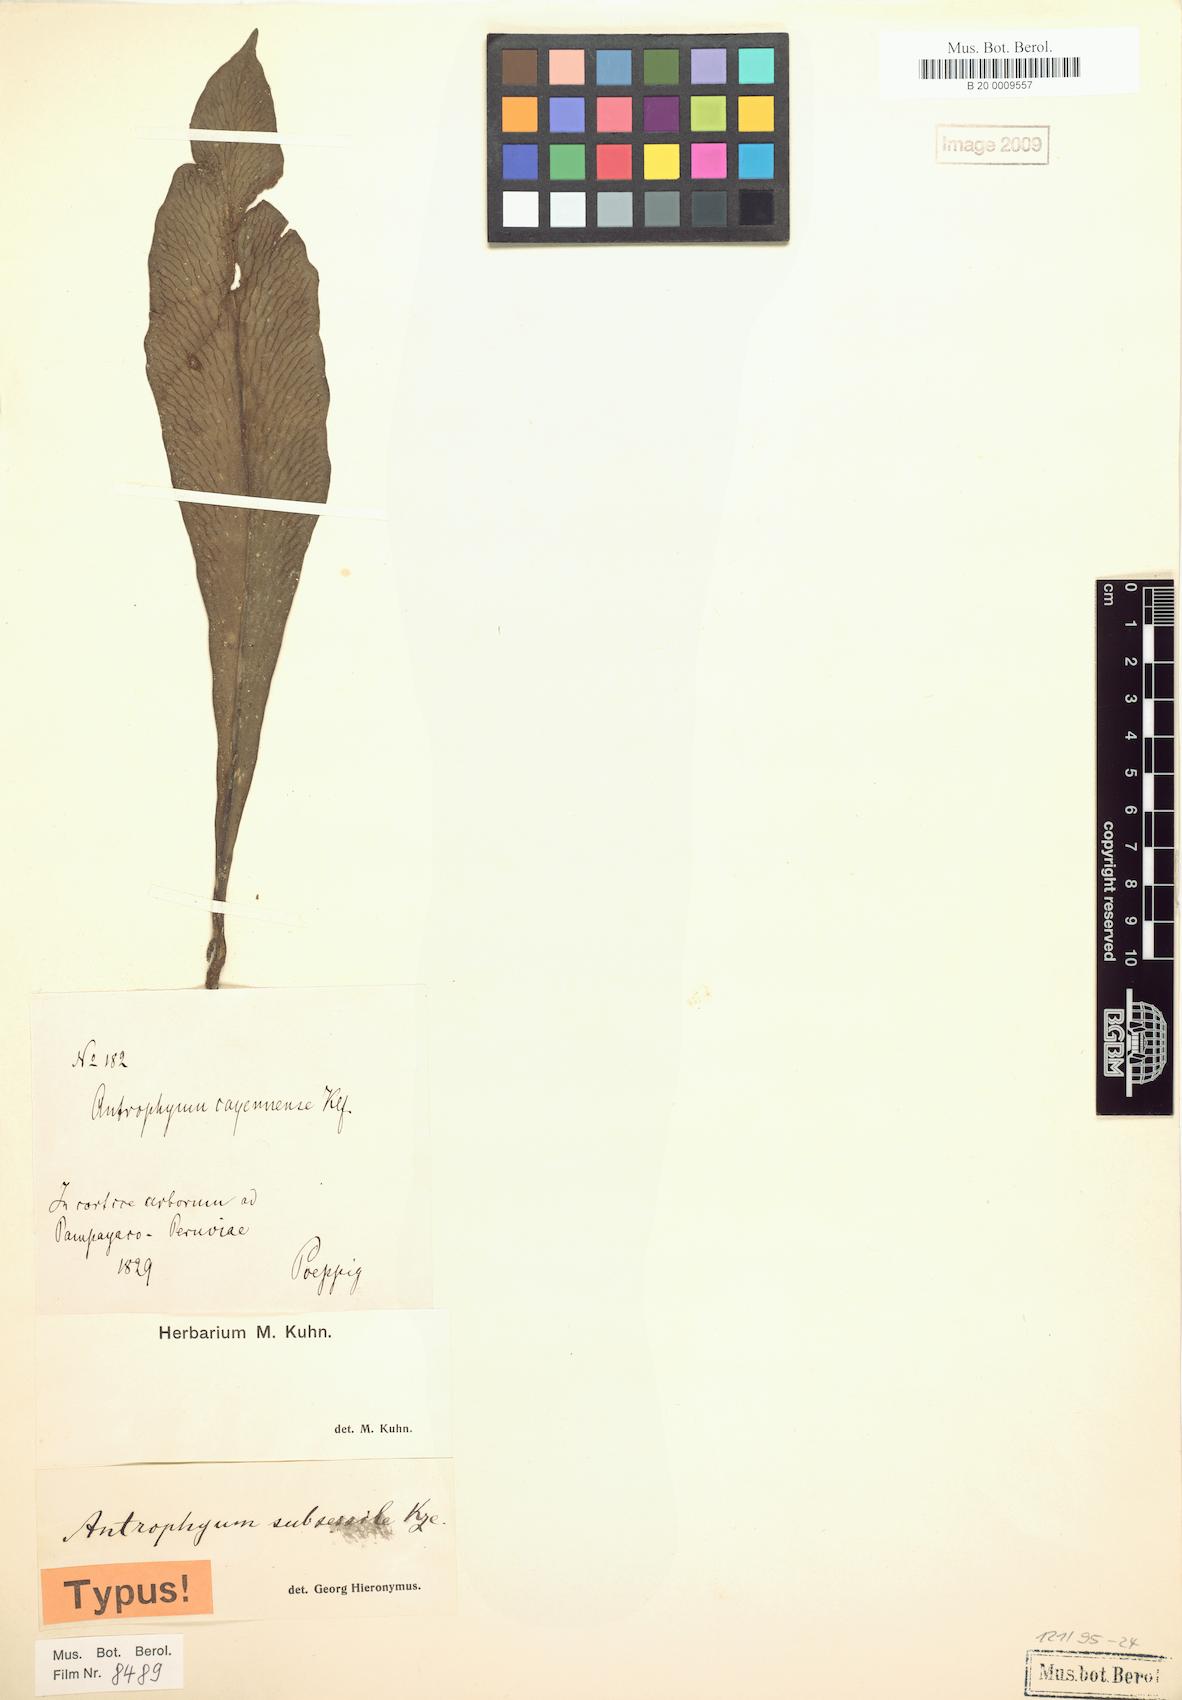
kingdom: Plantae
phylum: Tracheophyta
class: Polypodiopsida
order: Polypodiales
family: Pteridaceae
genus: Polytaenium
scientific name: Polytaenium cajenense
